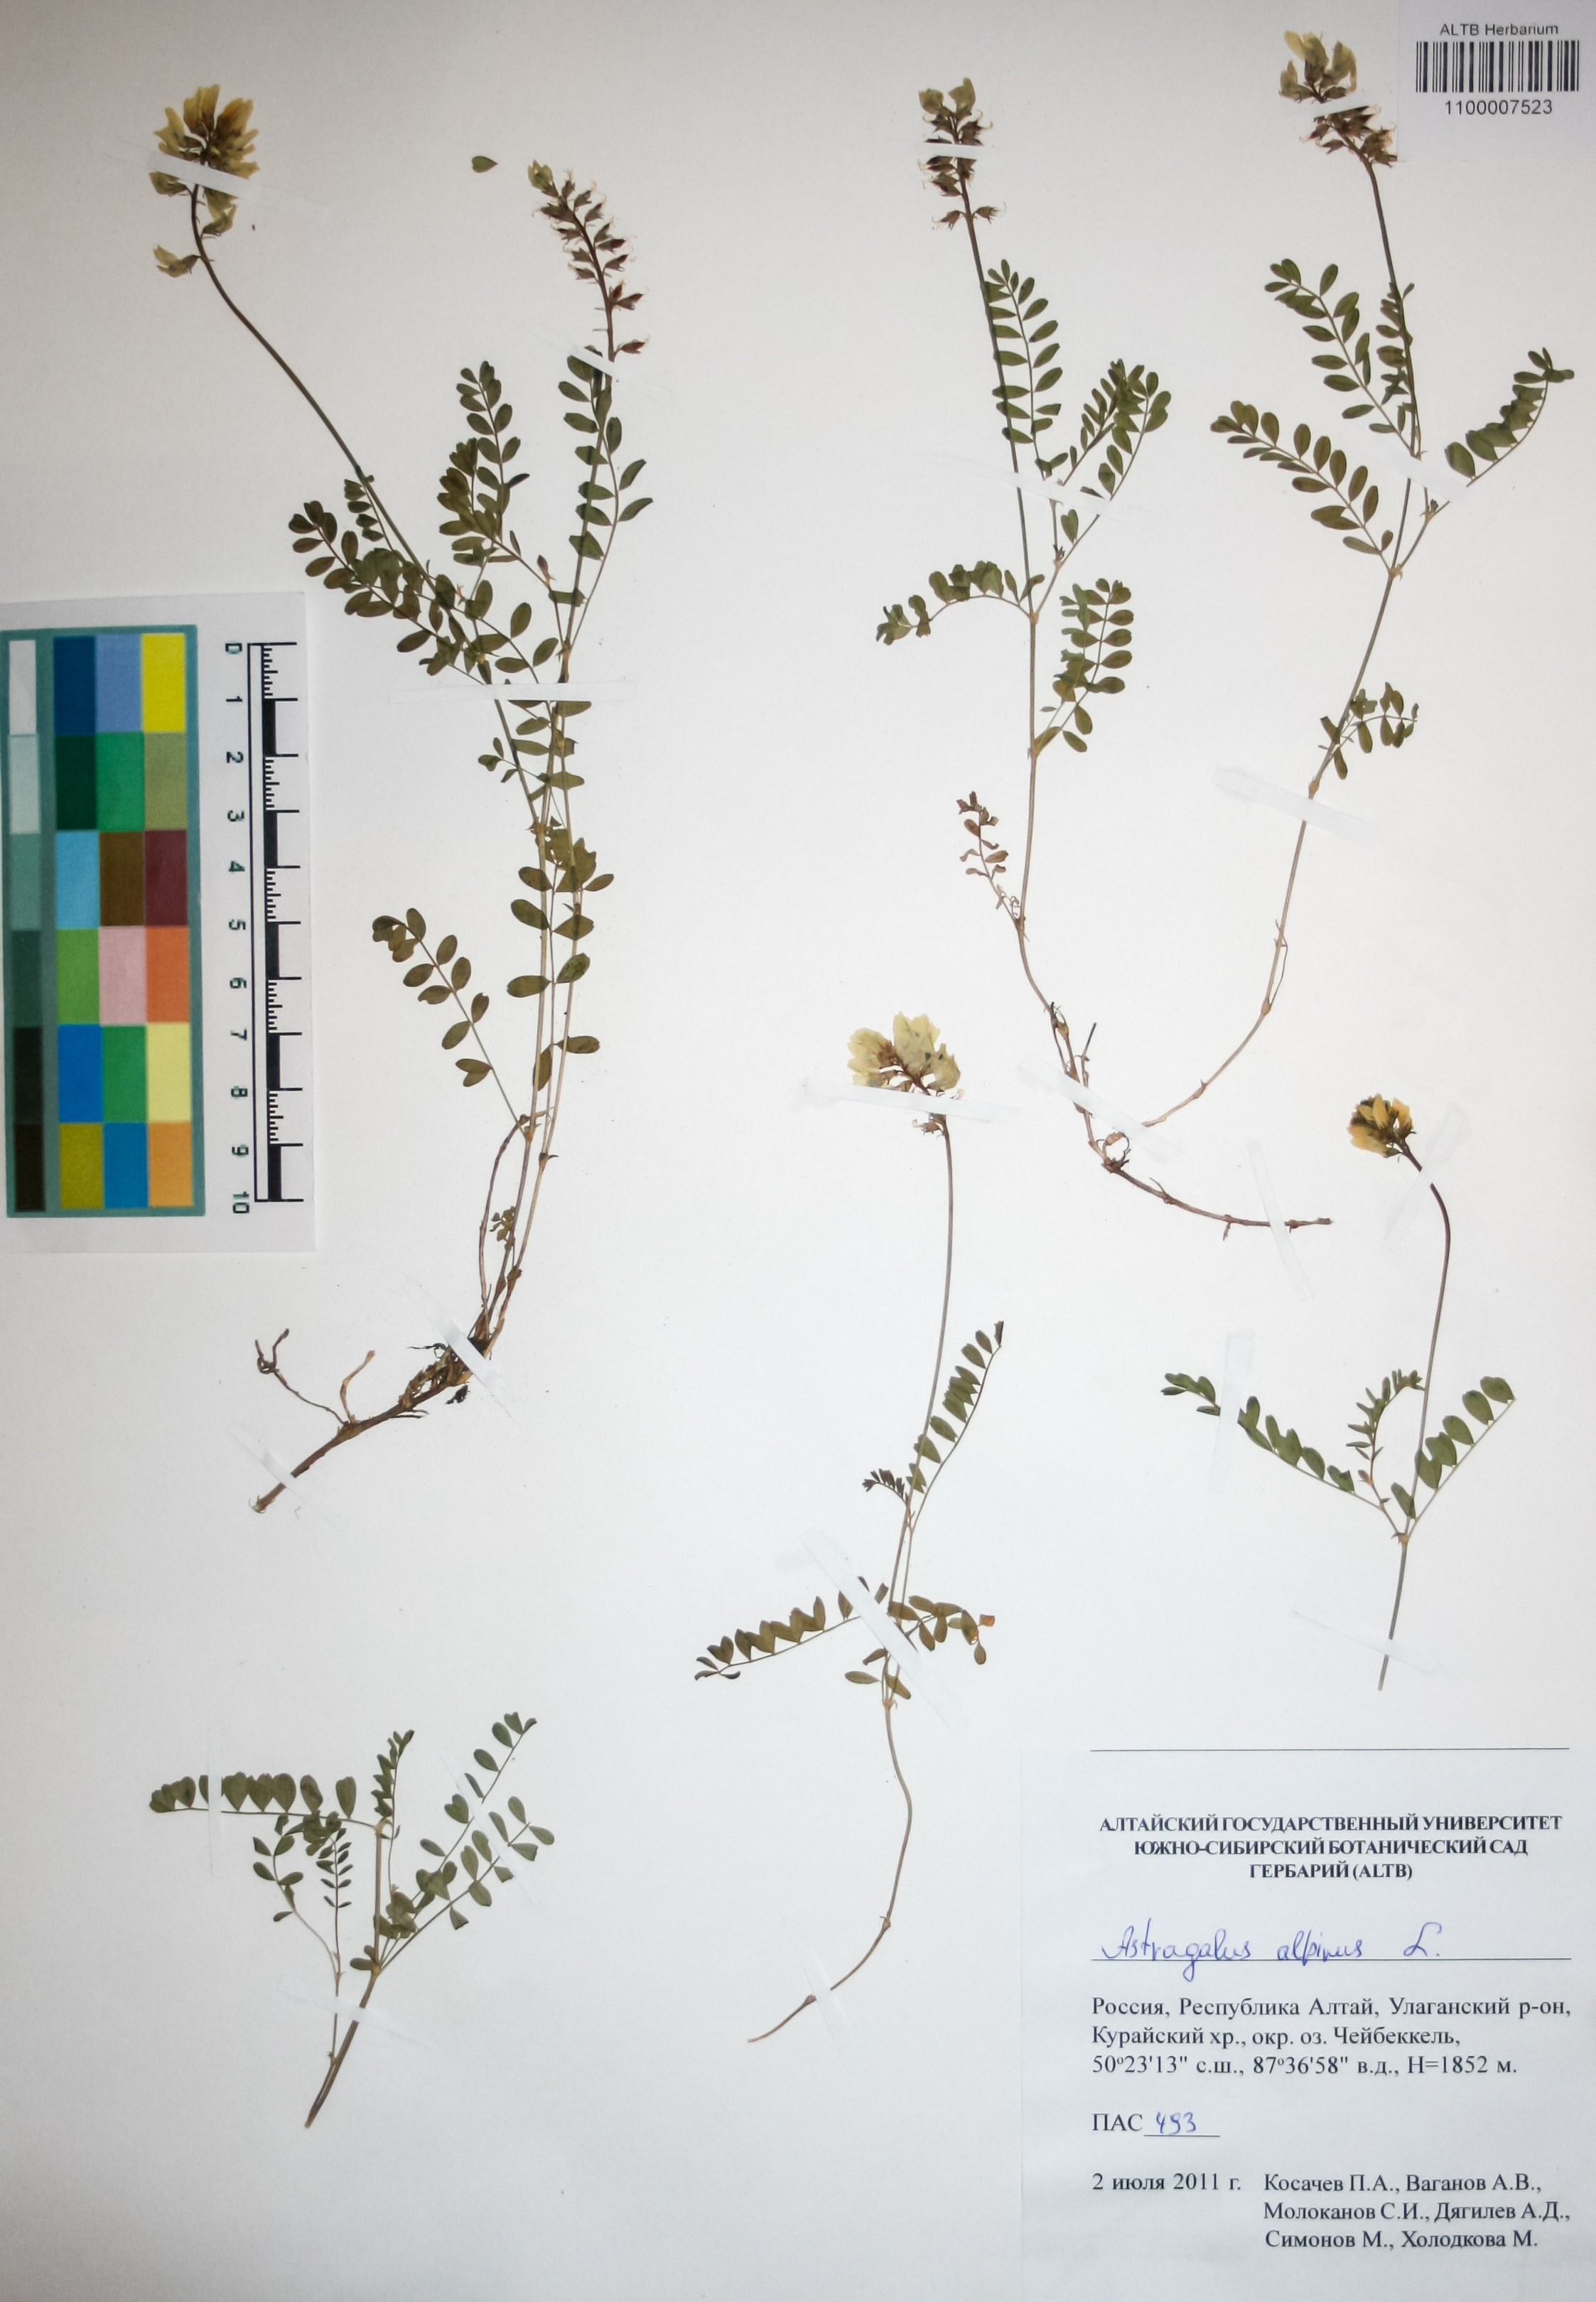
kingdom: Plantae
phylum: Tracheophyta
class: Magnoliopsida
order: Fabales
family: Fabaceae
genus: Astragalus
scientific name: Astragalus alpinus
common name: Alpine milk-vetch
